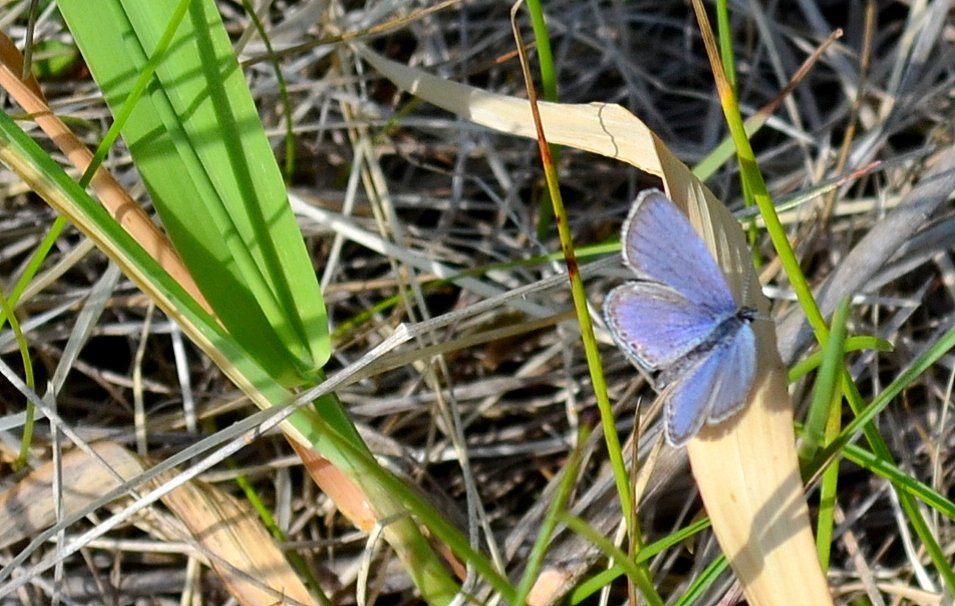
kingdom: Animalia
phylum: Arthropoda
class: Insecta
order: Lepidoptera
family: Lycaenidae
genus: Elkalyce
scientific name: Elkalyce comyntas
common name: Eastern Tailed-Blue
